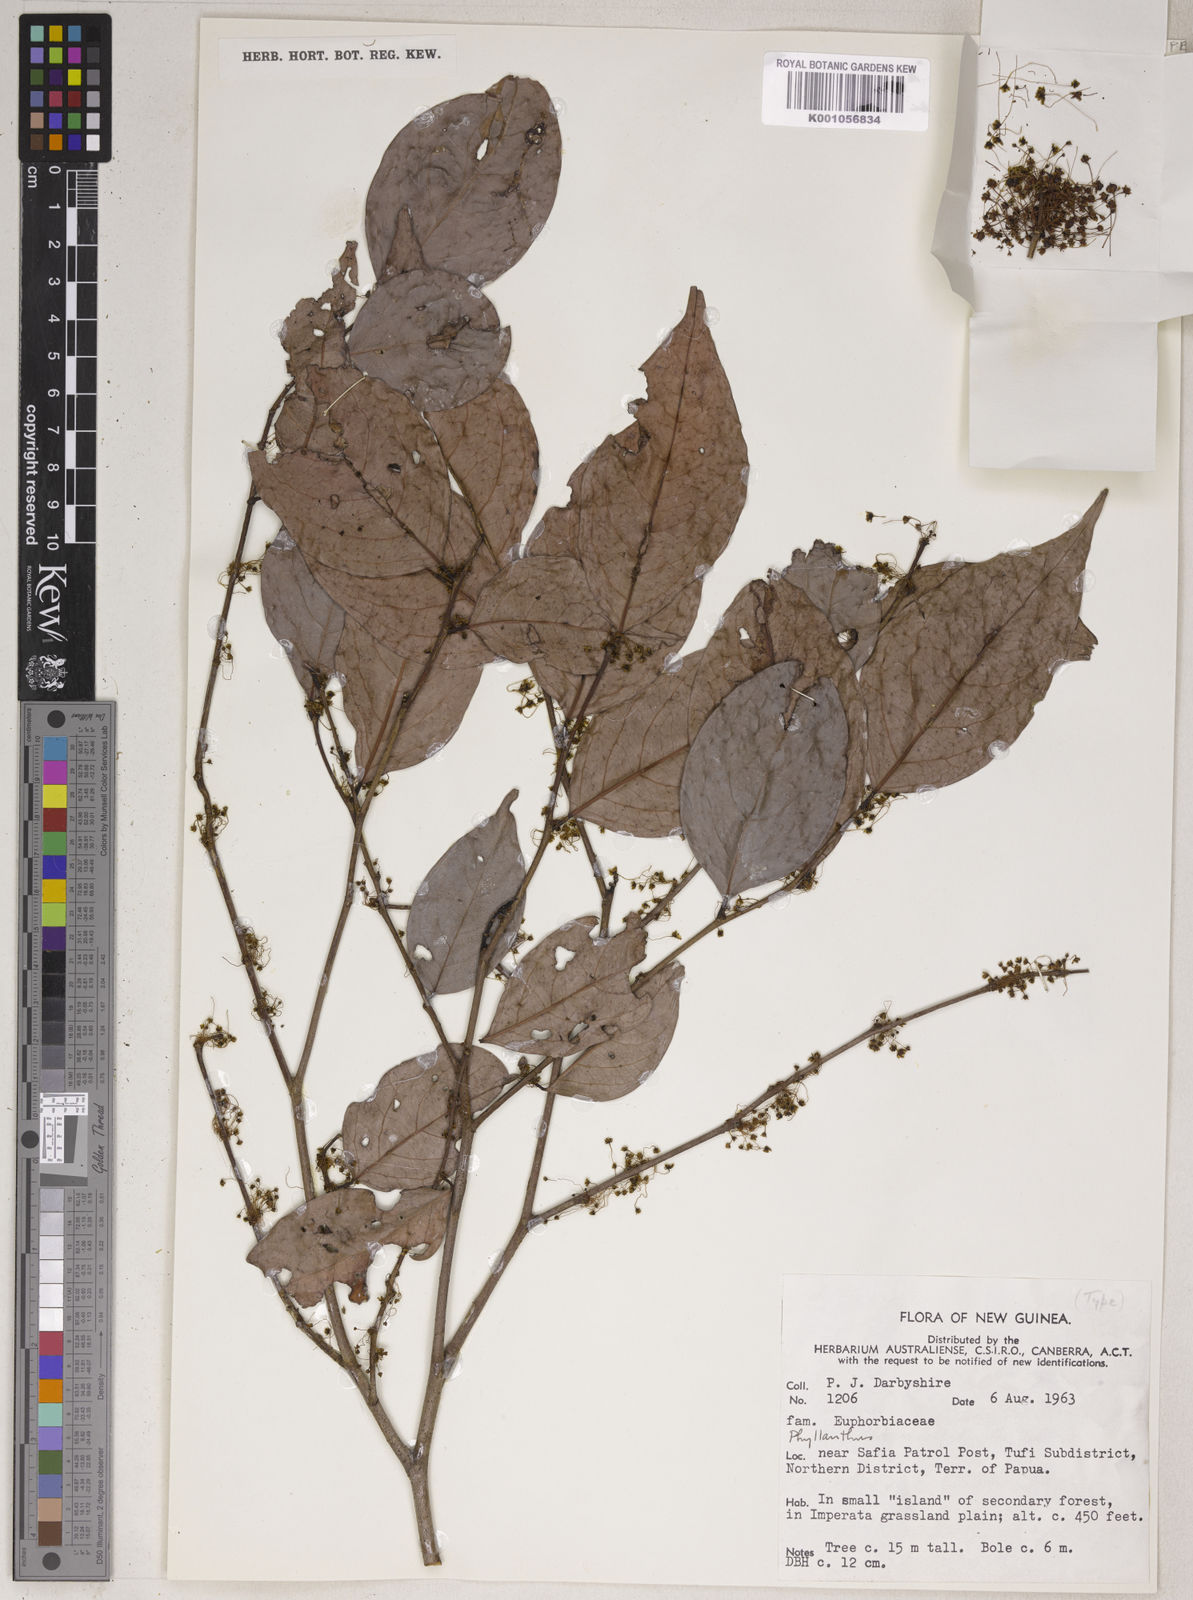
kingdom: Plantae
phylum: Tracheophyta
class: Magnoliopsida
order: Malpighiales
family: Phyllanthaceae
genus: Phyllanthus
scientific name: Phyllanthus praelongipes
